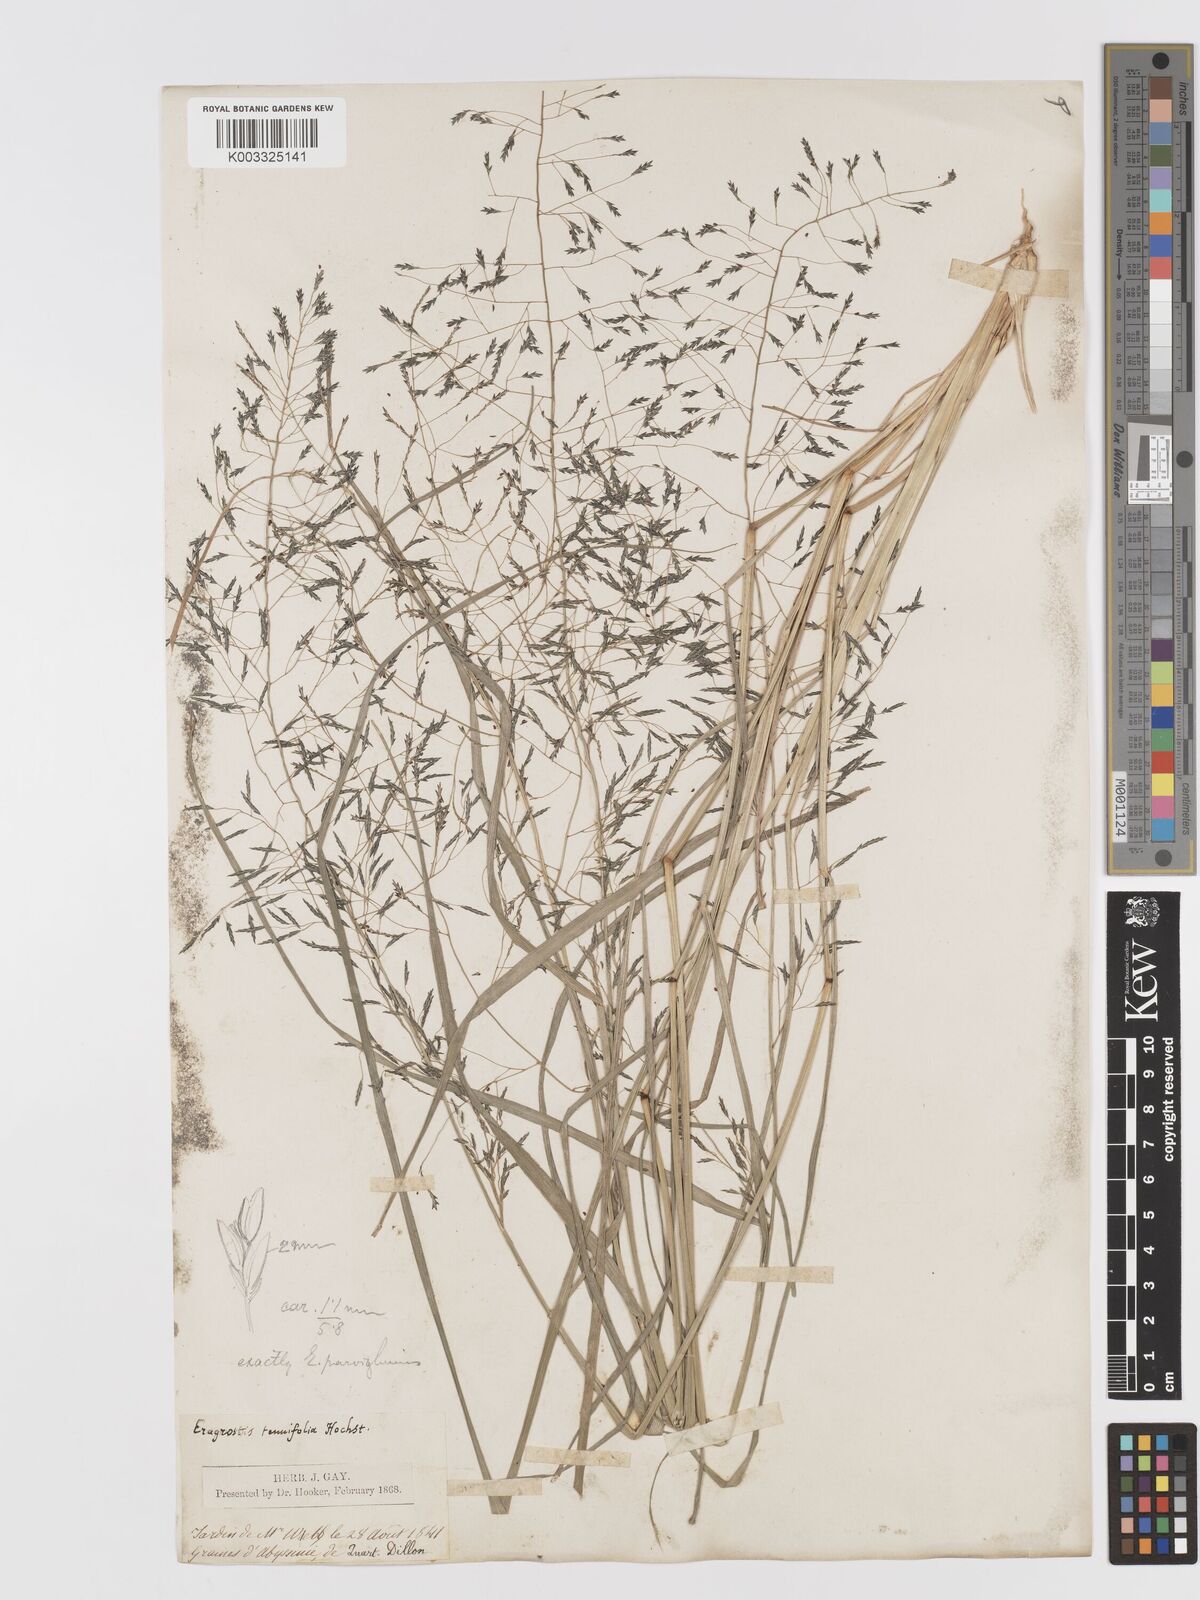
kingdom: Plantae
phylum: Tracheophyta
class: Liliopsida
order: Poales
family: Poaceae
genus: Eragrostis
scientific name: Eragrostis tenuifolia
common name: Elastic grass
